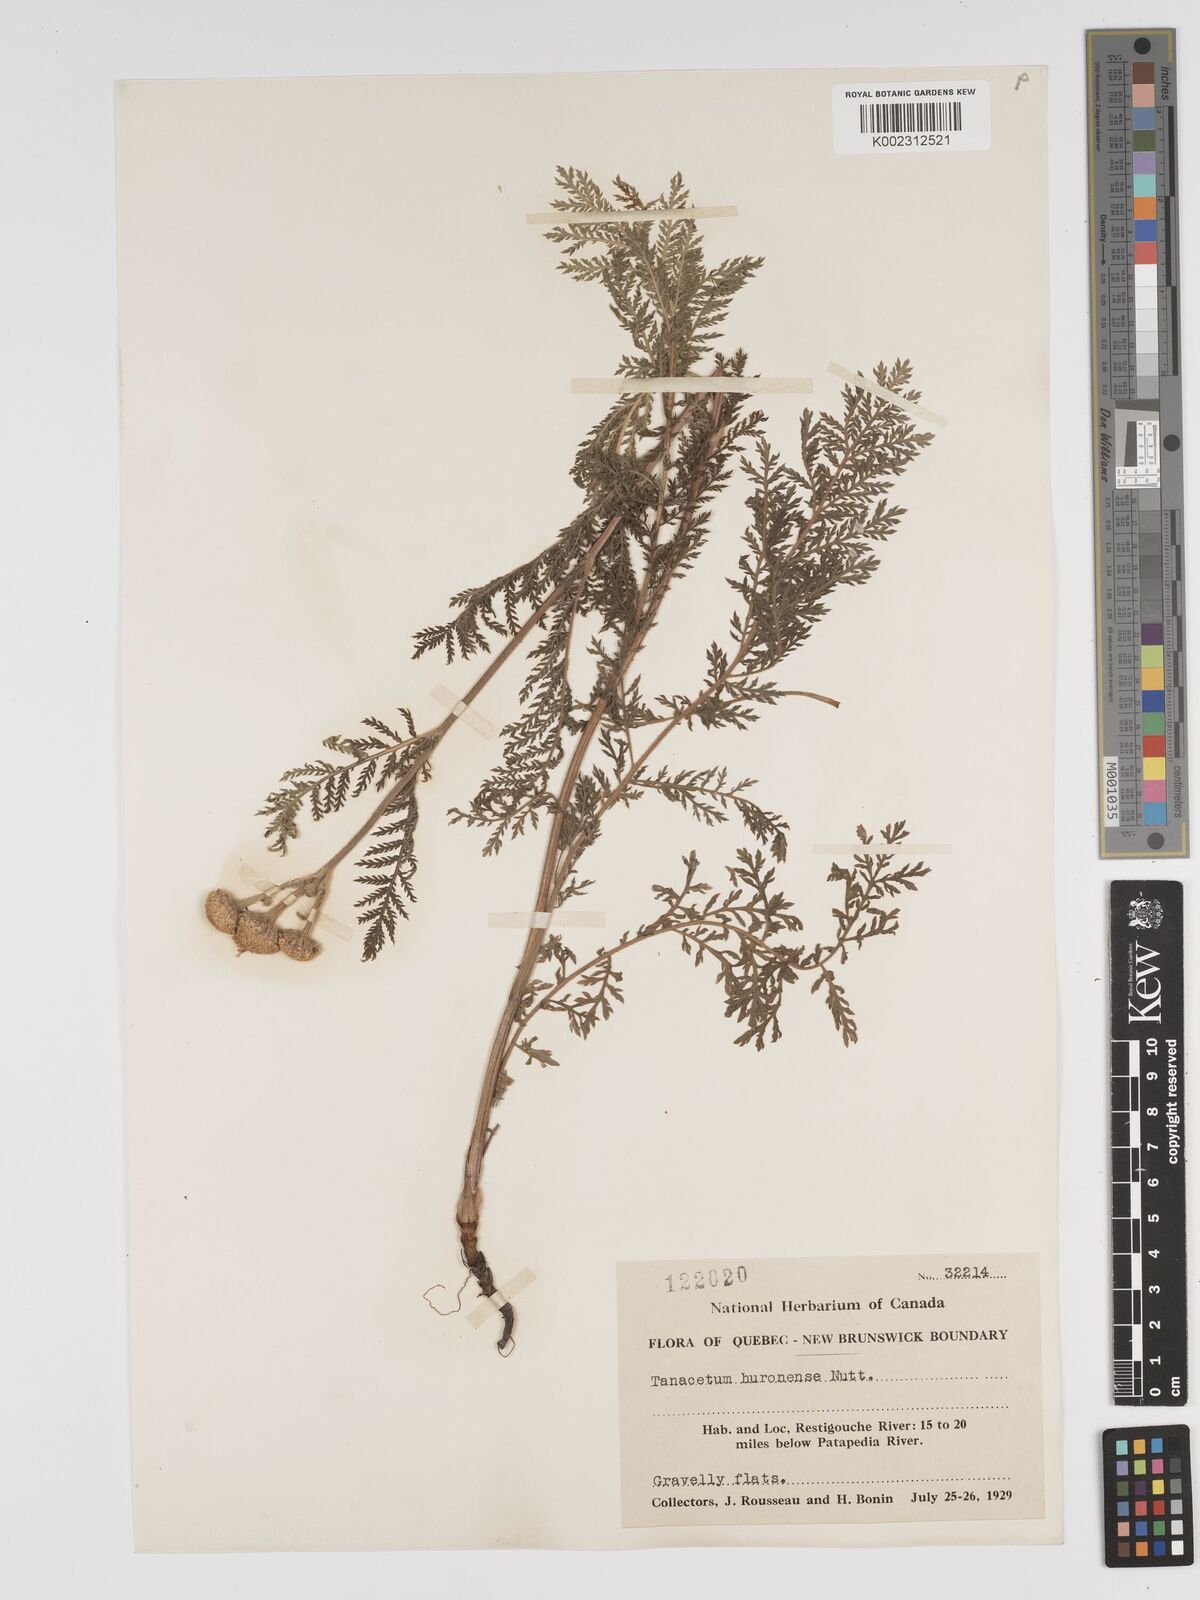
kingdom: Plantae
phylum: Tracheophyta
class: Magnoliopsida
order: Asterales
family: Asteraceae
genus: Tanacetum
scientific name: Tanacetum bipinnatum
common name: Dwarf tansy
